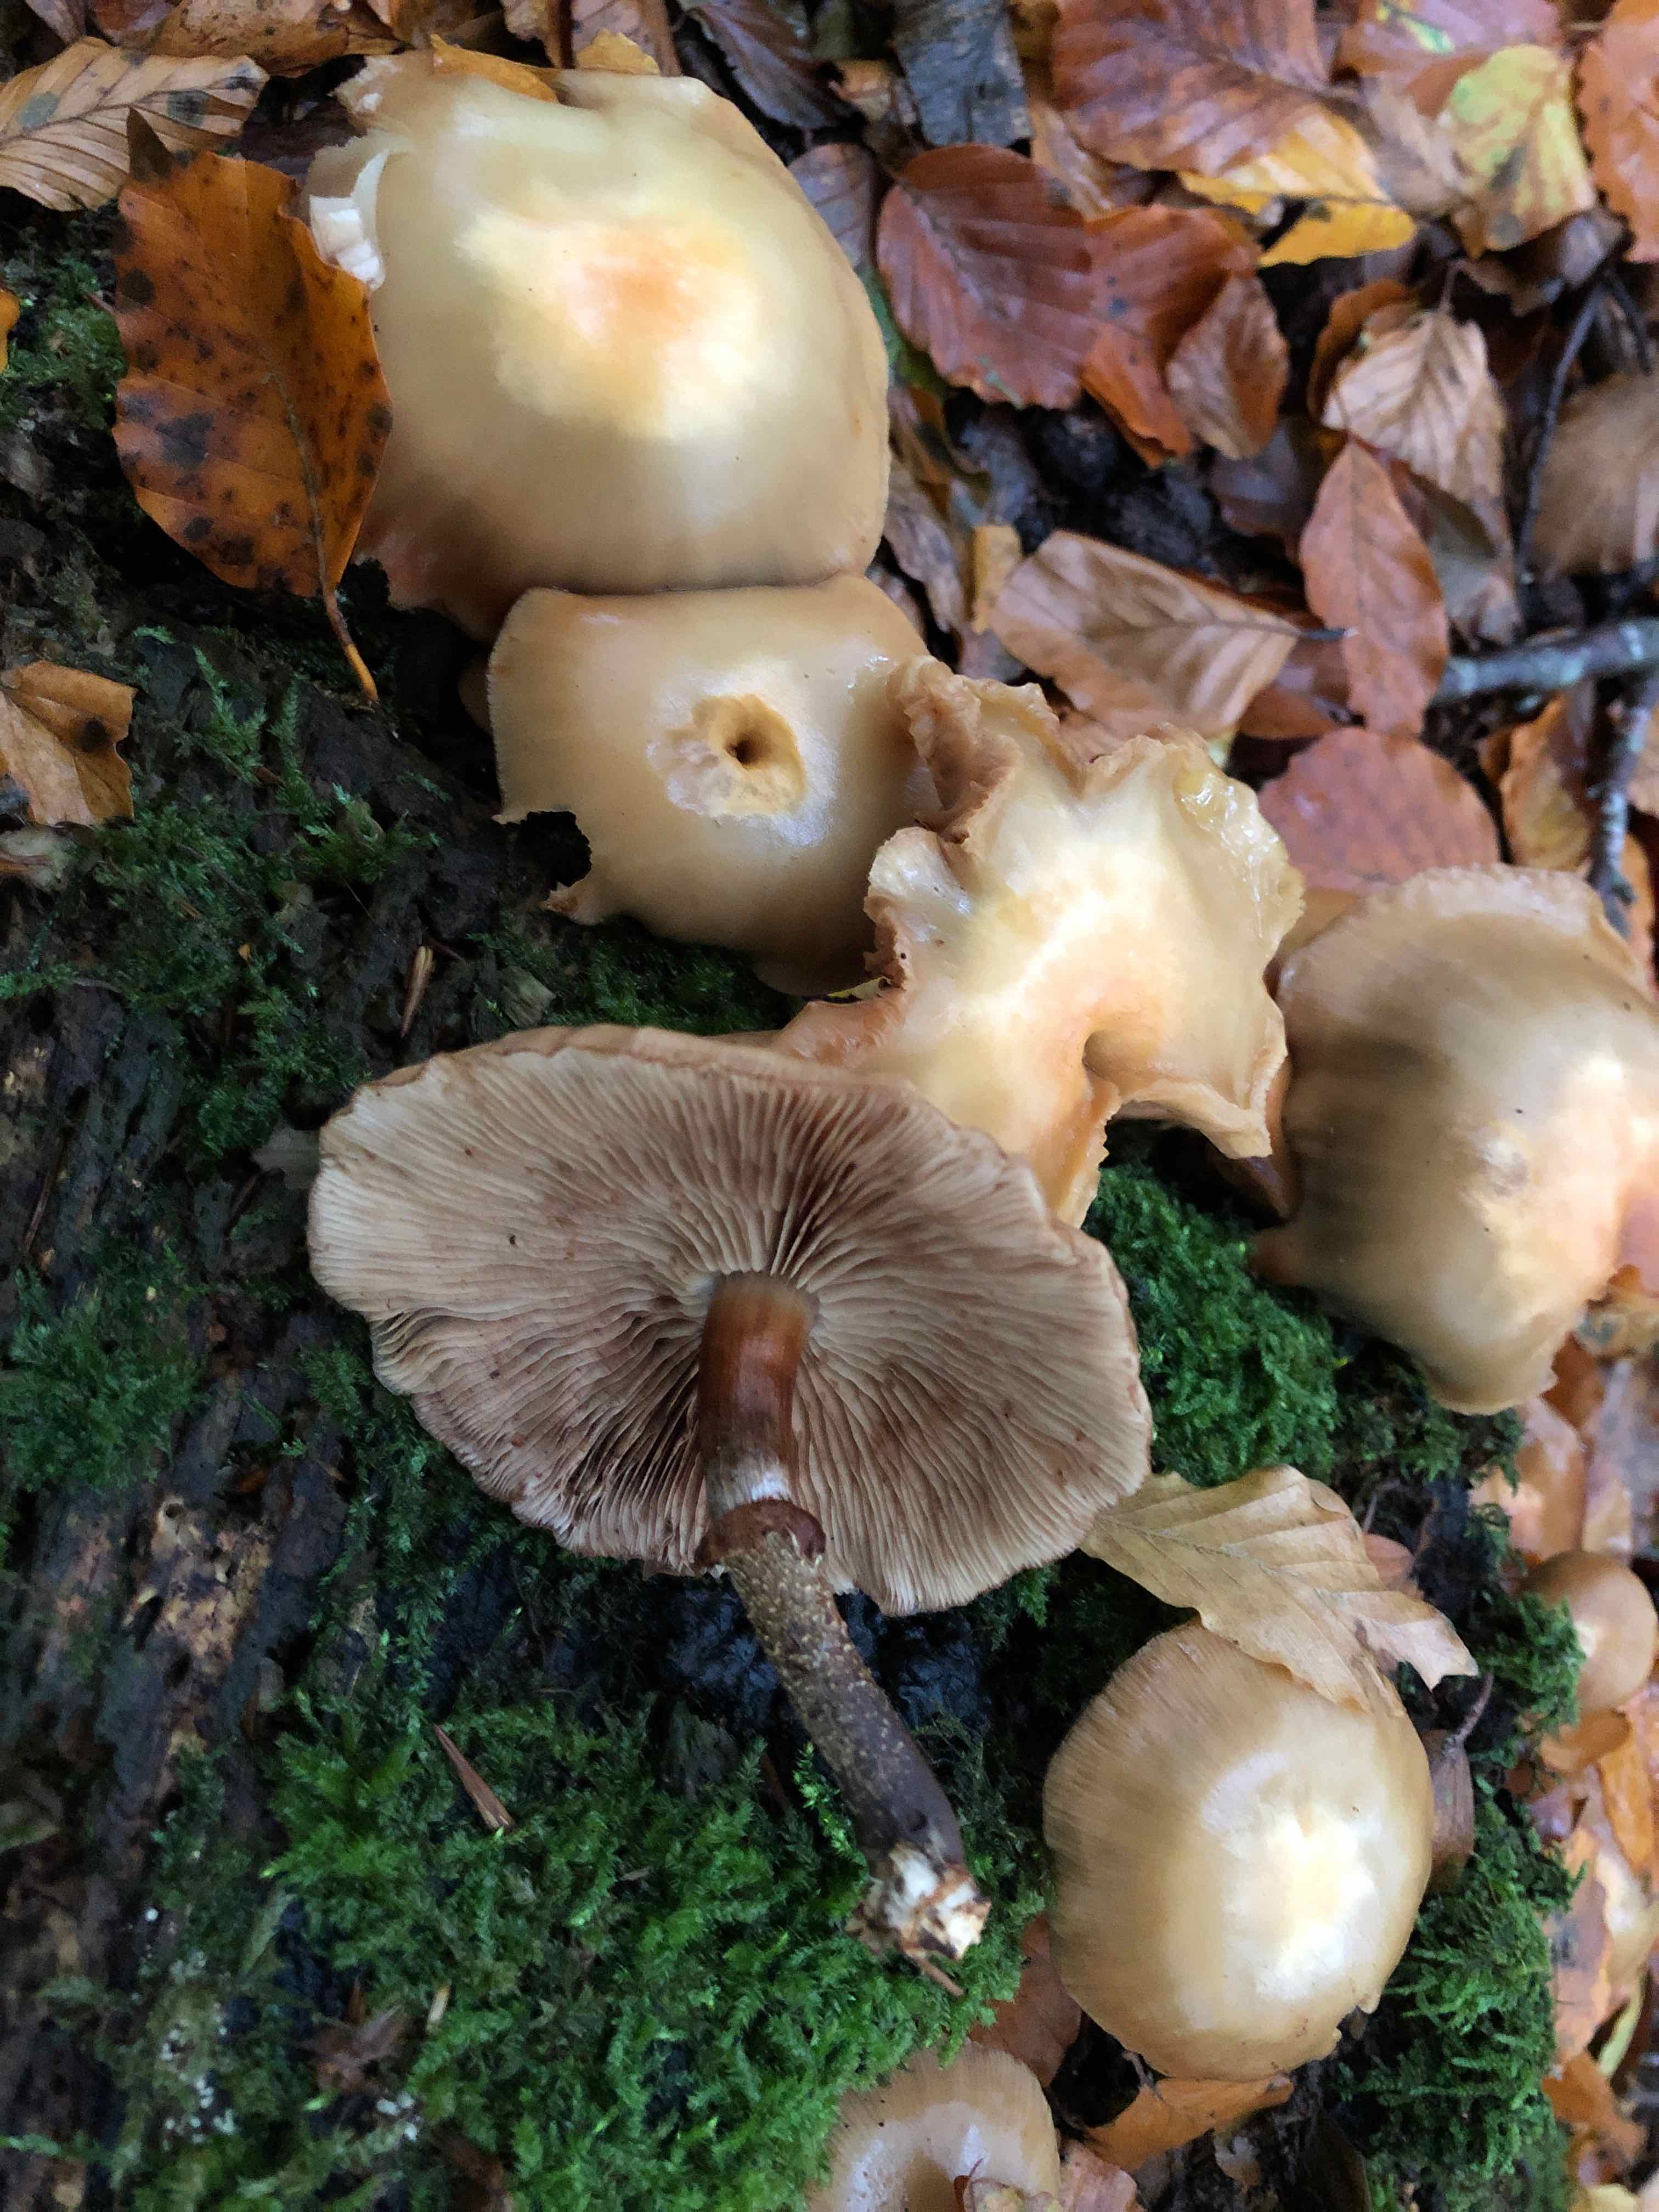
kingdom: Fungi
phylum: Basidiomycota
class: Agaricomycetes
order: Agaricales
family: Strophariaceae
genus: Kuehneromyces
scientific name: Kuehneromyces mutabilis
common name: foranderlig skælhat
